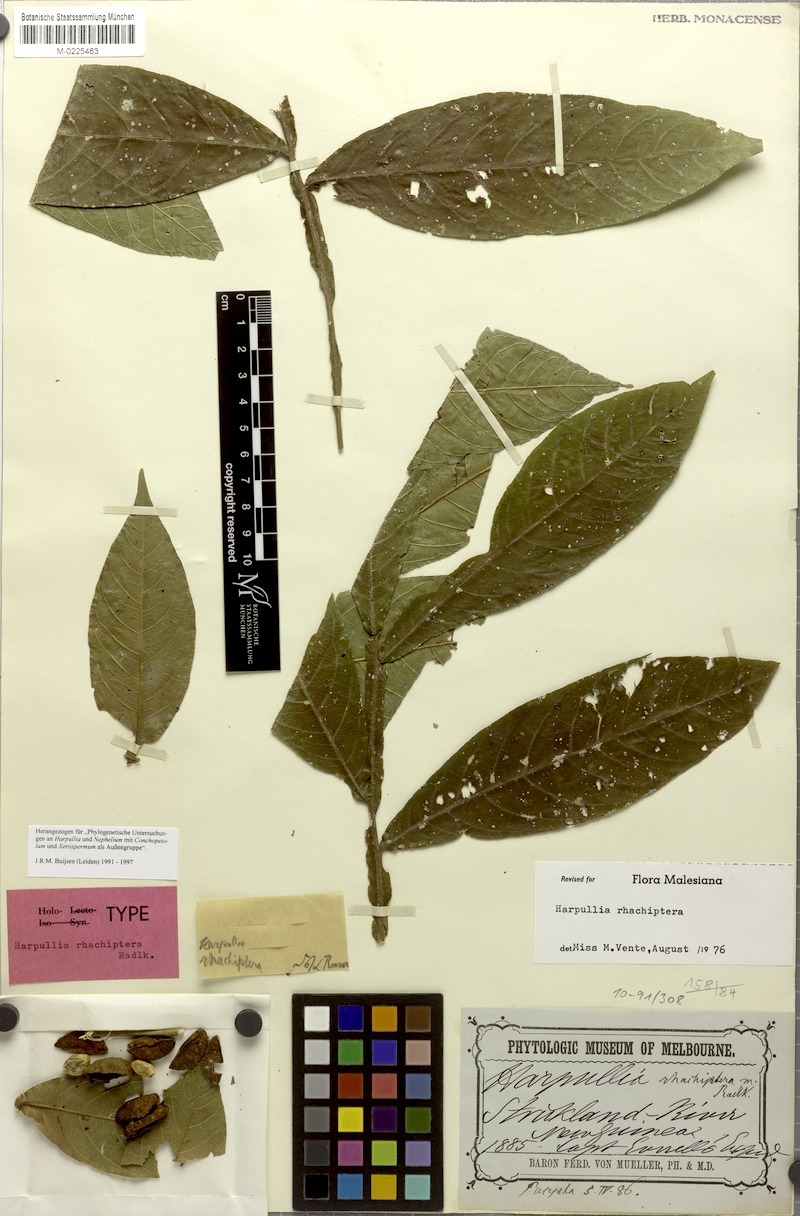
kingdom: Plantae
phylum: Tracheophyta
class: Magnoliopsida
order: Sapindales
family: Sapindaceae
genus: Harpullia
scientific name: Harpullia rhachiptera
